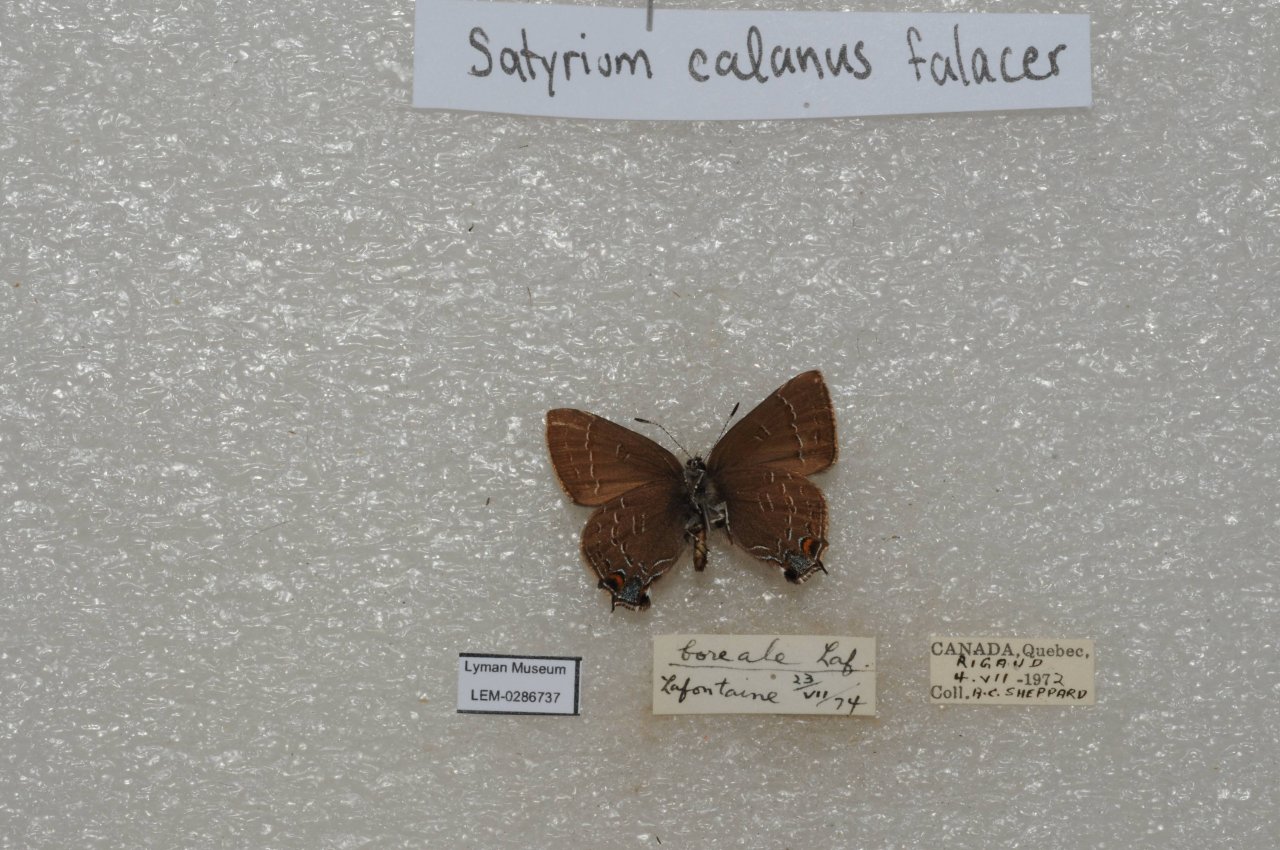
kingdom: Animalia
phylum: Arthropoda
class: Insecta
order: Lepidoptera
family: Lycaenidae
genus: Satyrium
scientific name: Satyrium calanus
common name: Banded Hairstreak
